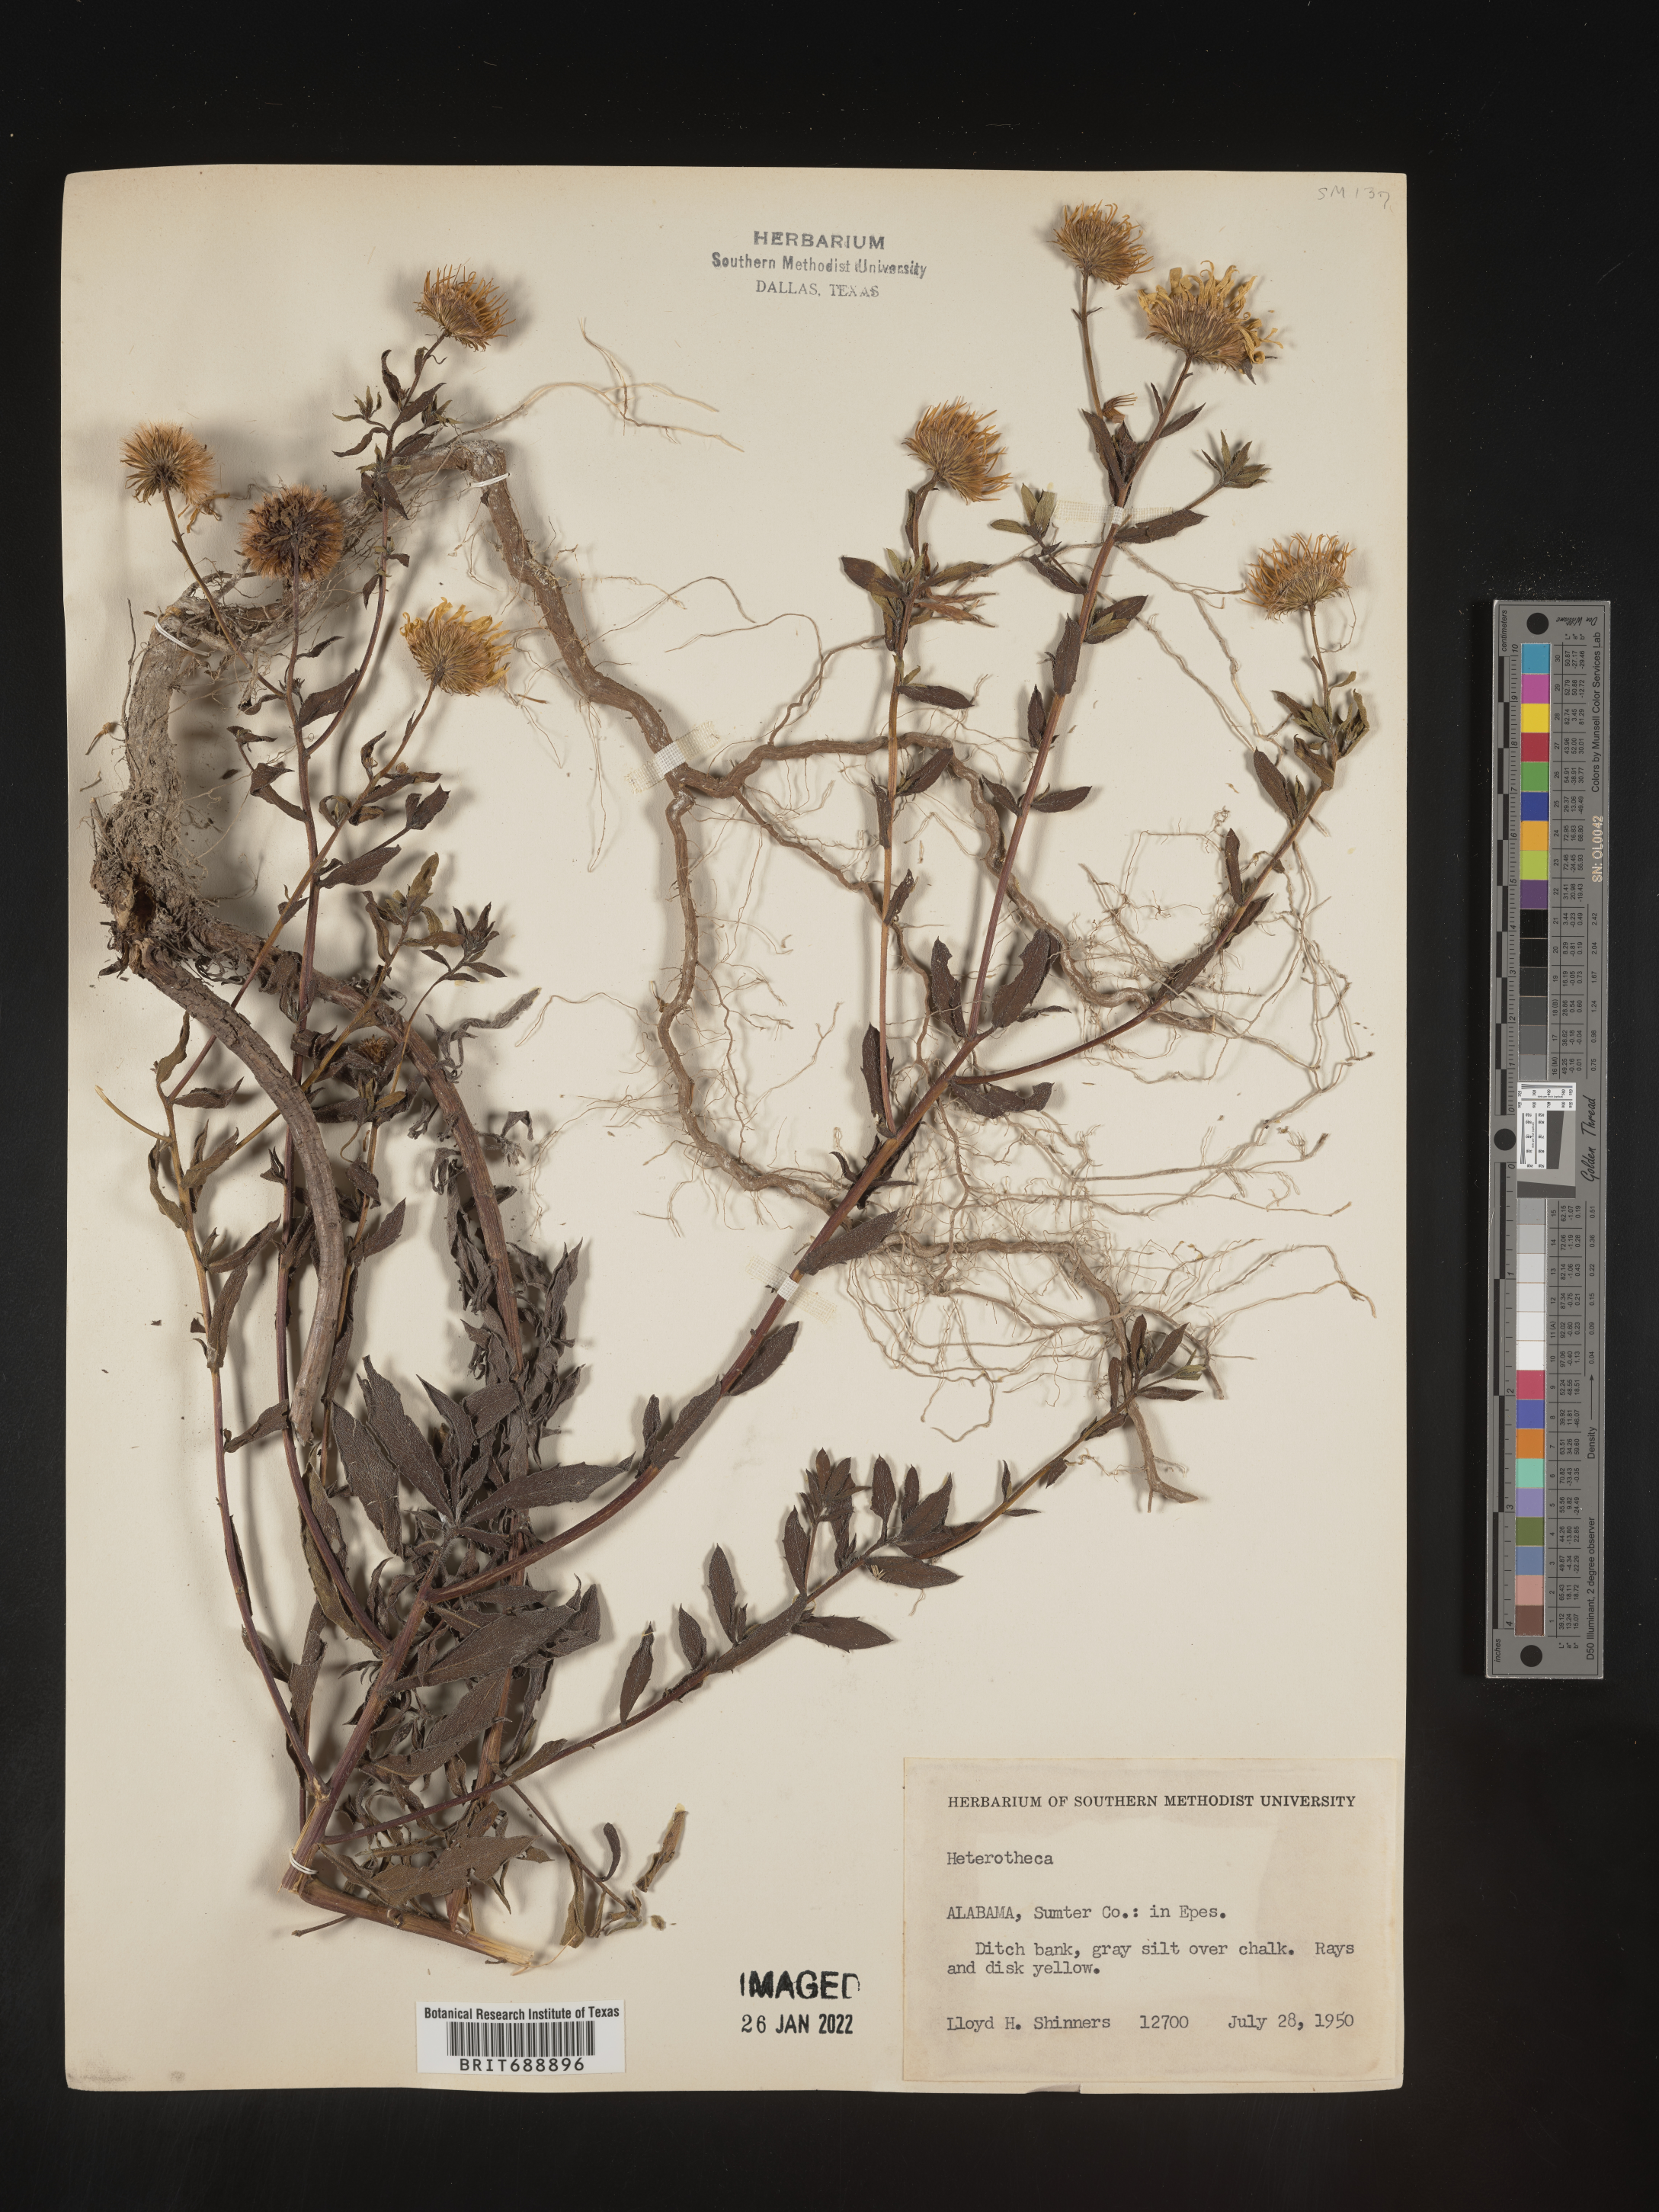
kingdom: Plantae
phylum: Tracheophyta
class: Magnoliopsida
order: Asterales
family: Asteraceae
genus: Chrysopsis
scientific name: Chrysopsis
